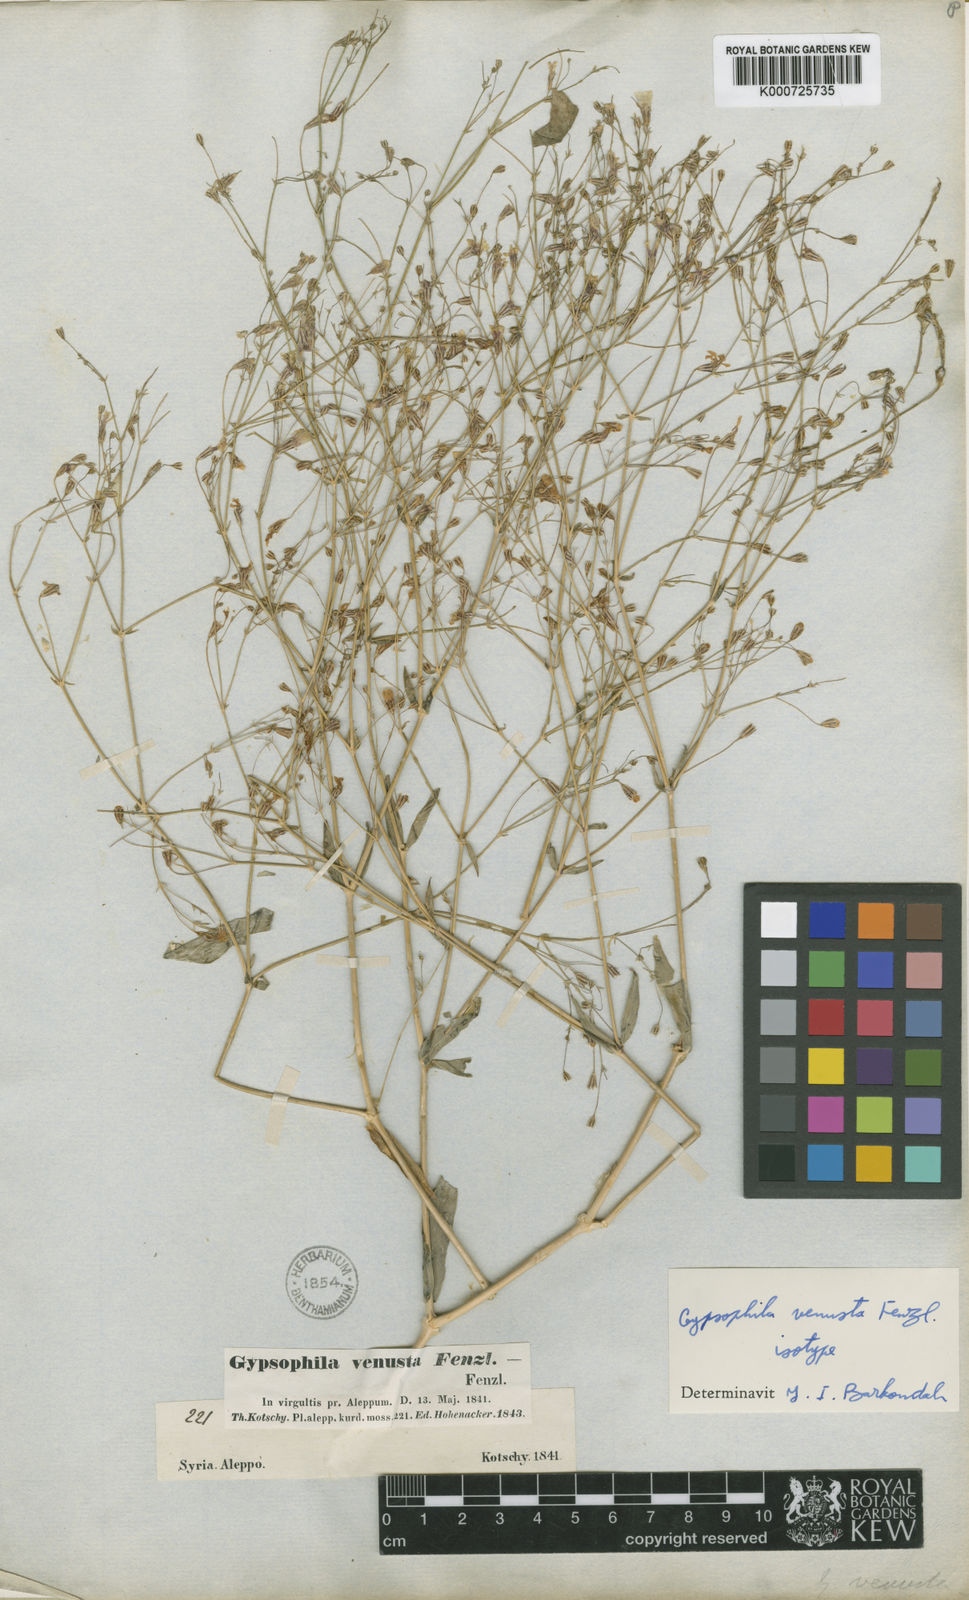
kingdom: Plantae
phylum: Tracheophyta
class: Magnoliopsida
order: Caryophyllales
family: Caryophyllaceae
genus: Gypsophila
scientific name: Gypsophila venusta
